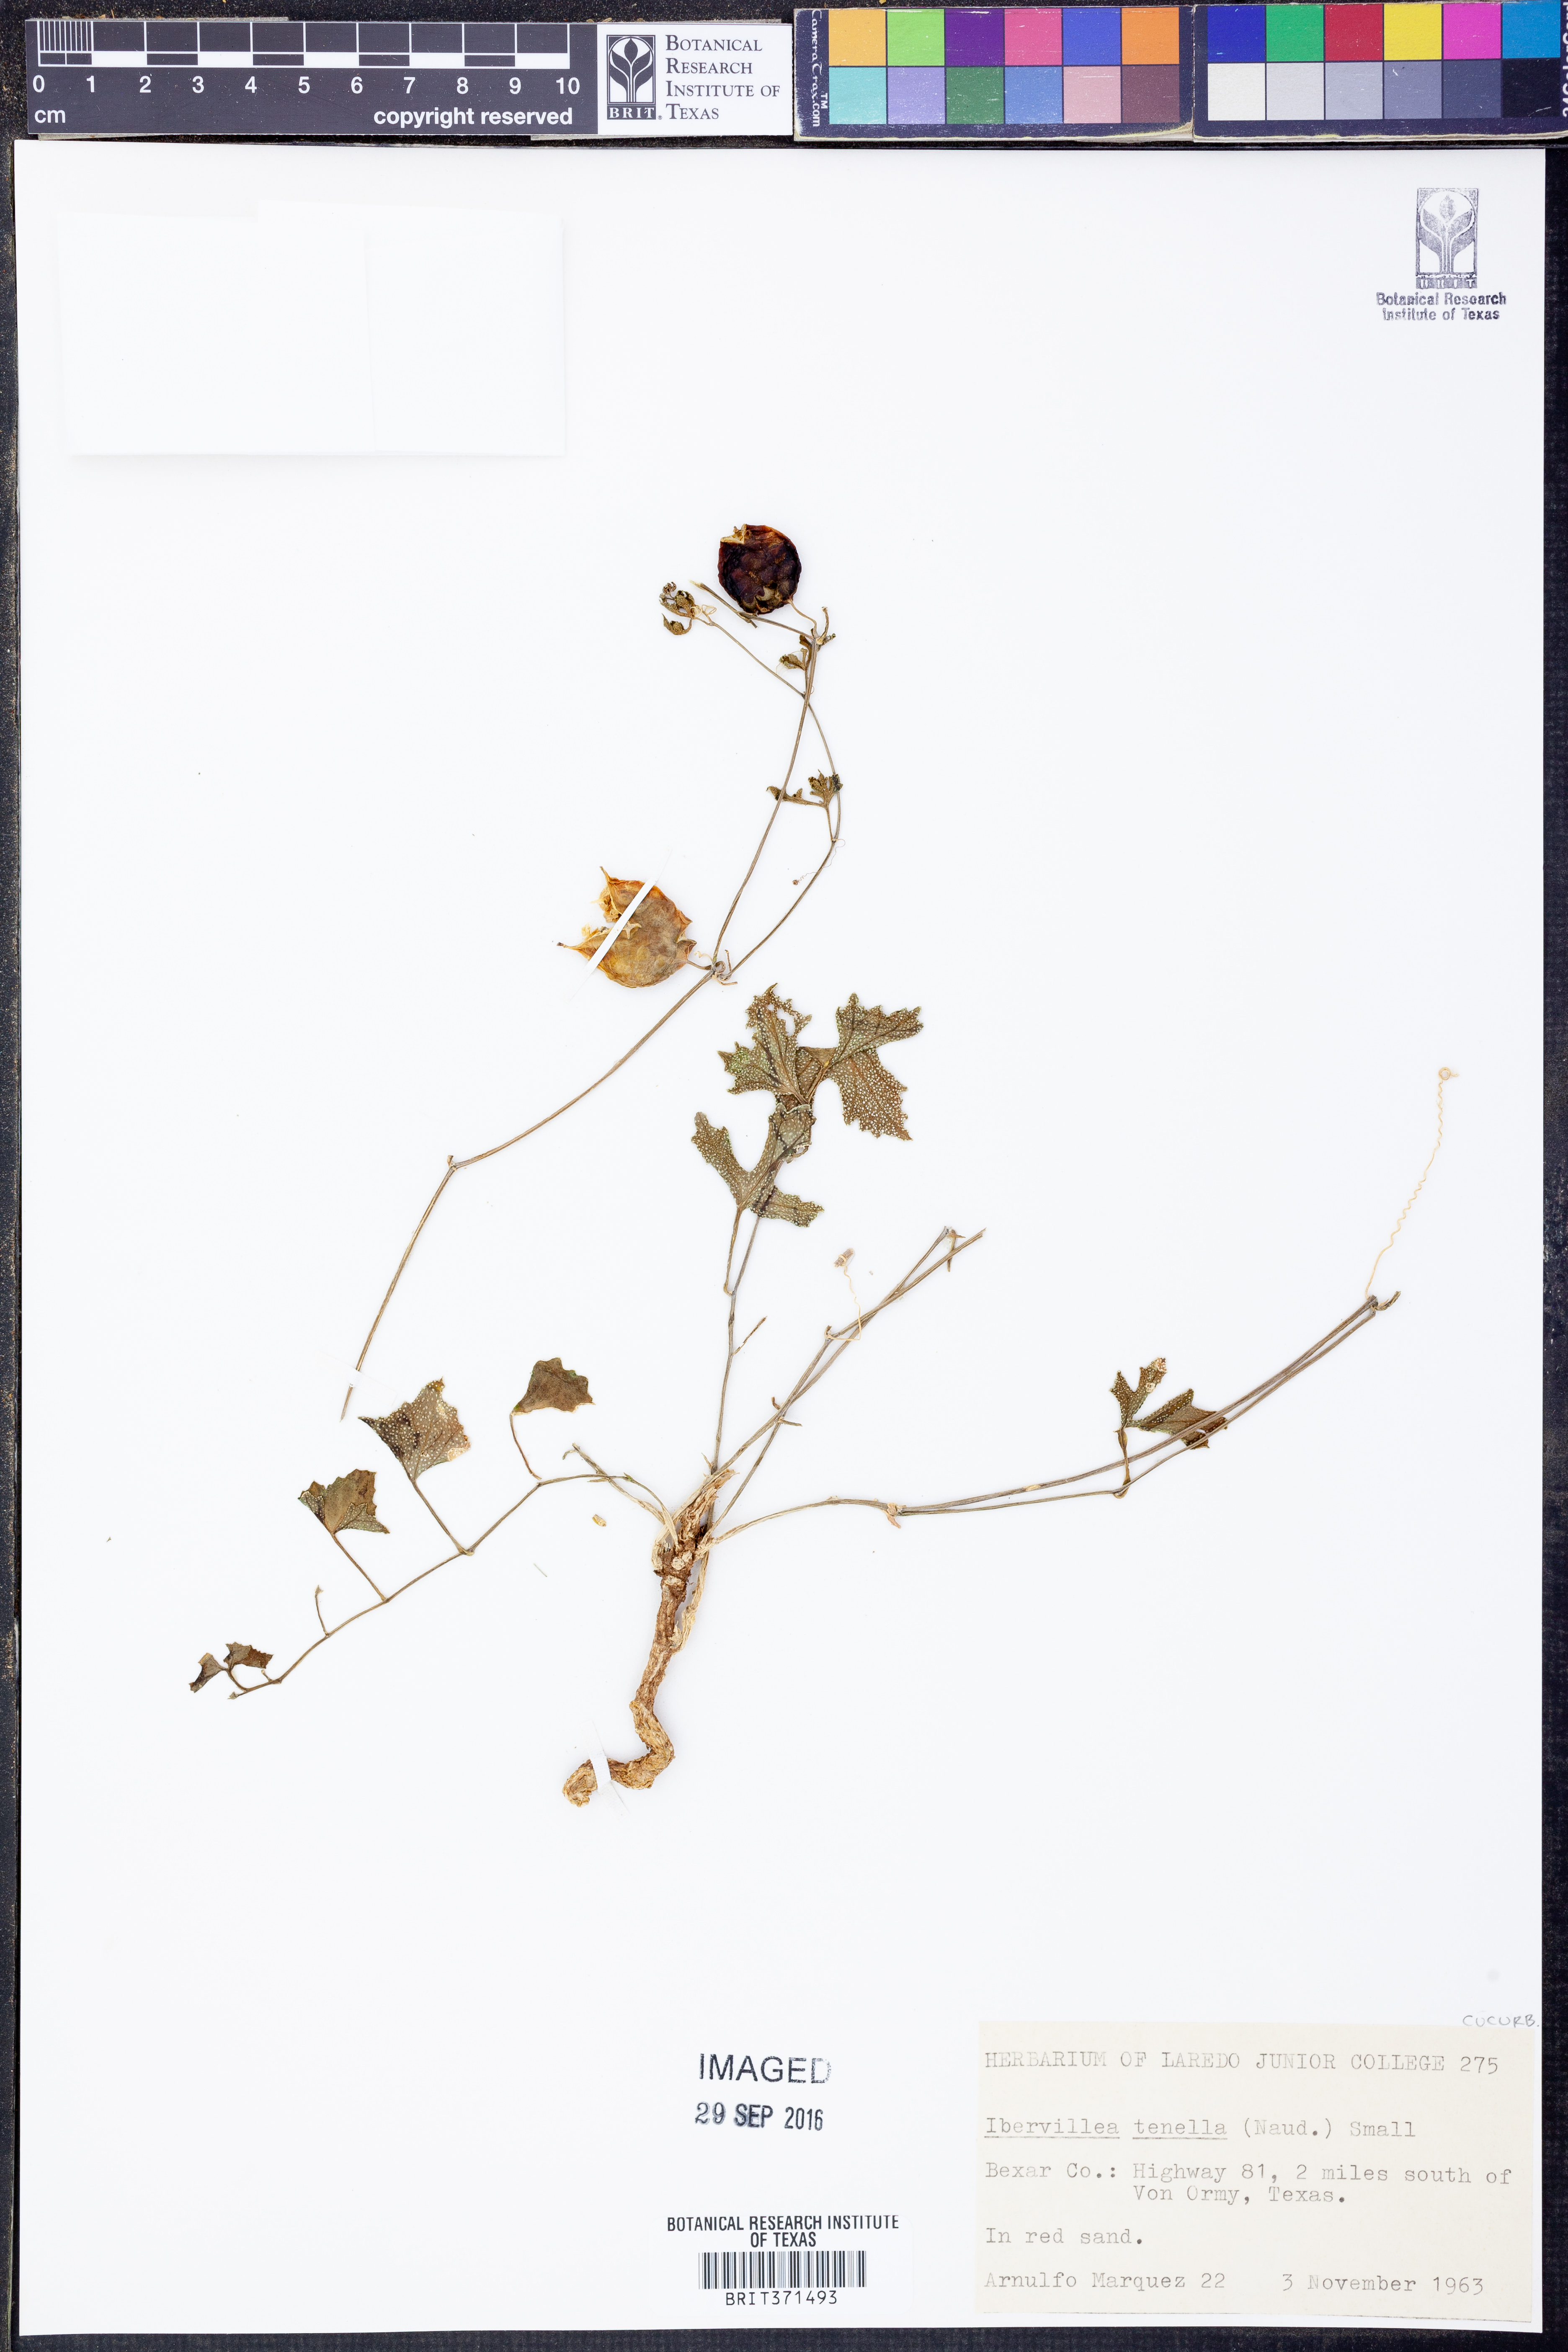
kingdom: Plantae
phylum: Tracheophyta
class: Magnoliopsida
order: Cucurbitales
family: Cucurbitaceae
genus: Ibervillea
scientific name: Ibervillea lindheimeri
